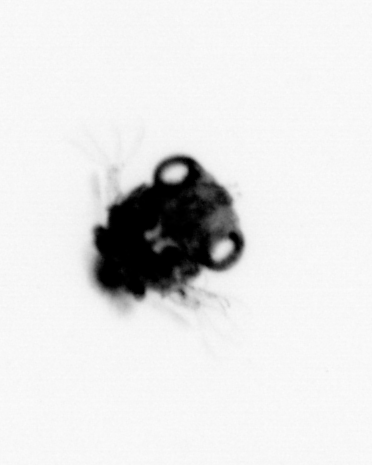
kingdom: Animalia
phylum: Arthropoda
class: Malacostraca
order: Decapoda
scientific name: Decapoda
